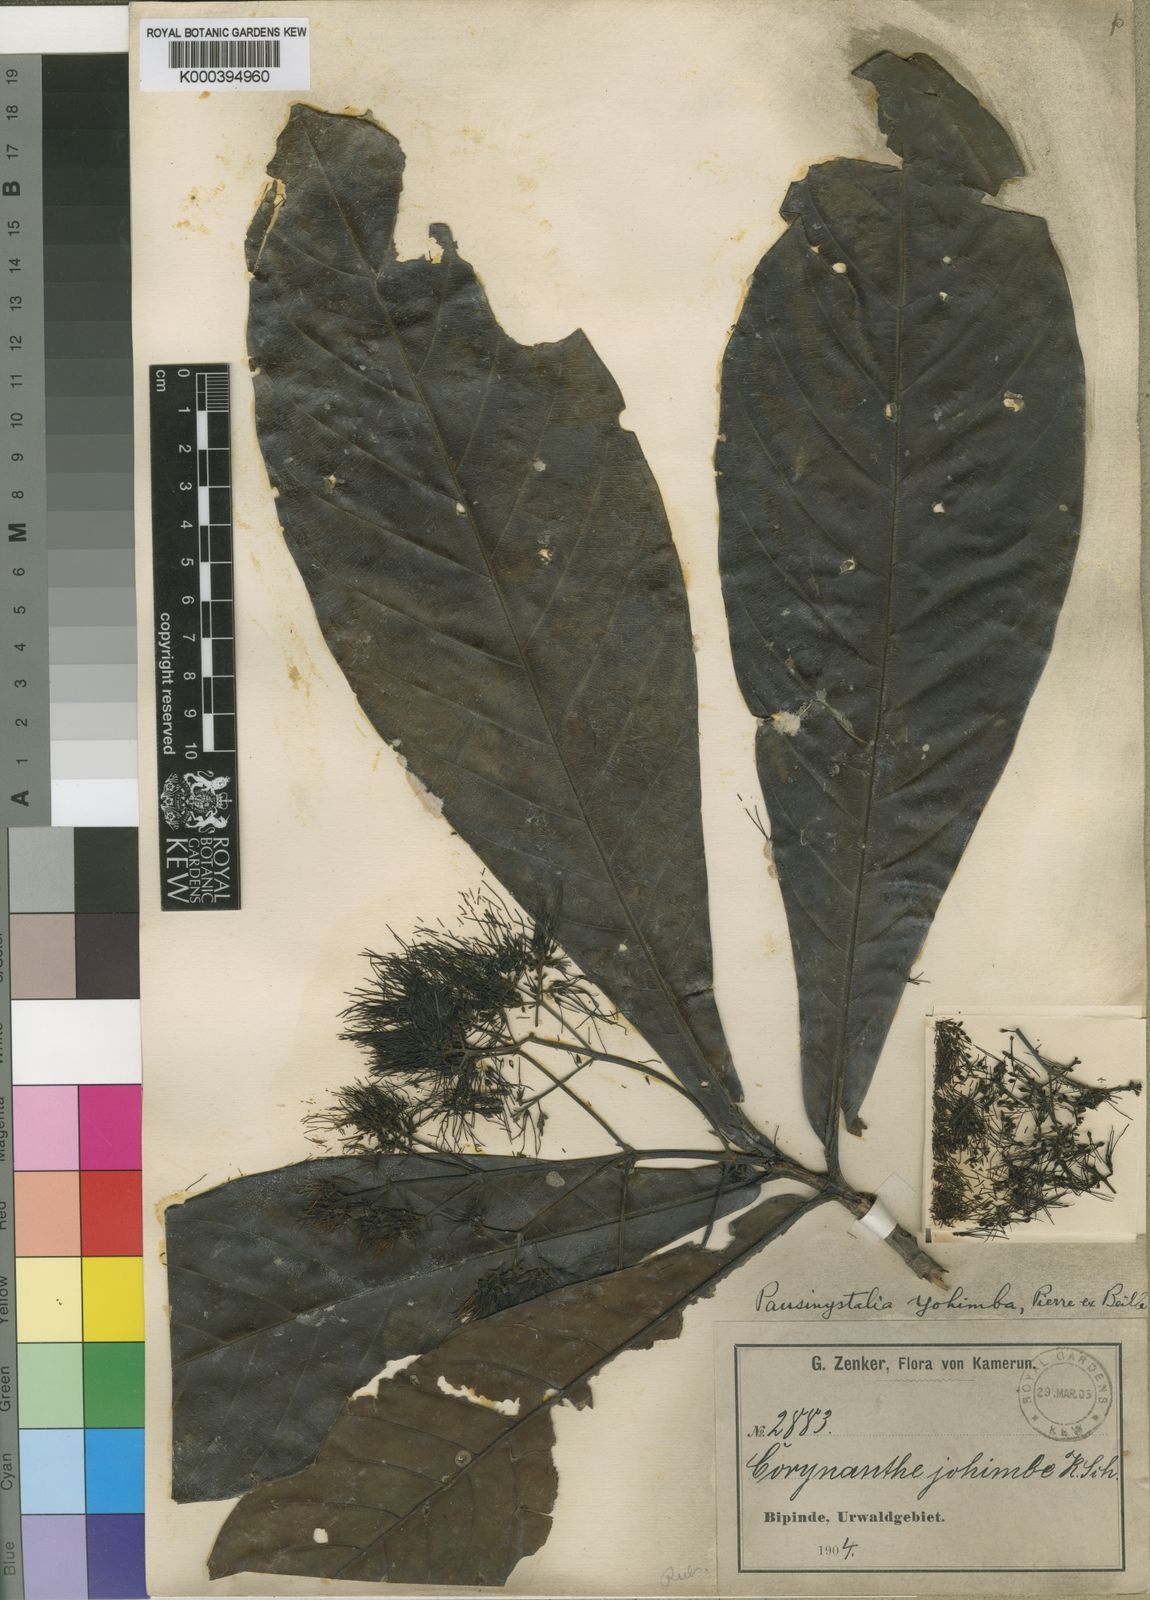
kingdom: Plantae
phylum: Tracheophyta
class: Magnoliopsida
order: Gentianales
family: Rubiaceae
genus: Pausinystalia
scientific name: Pausinystalia
